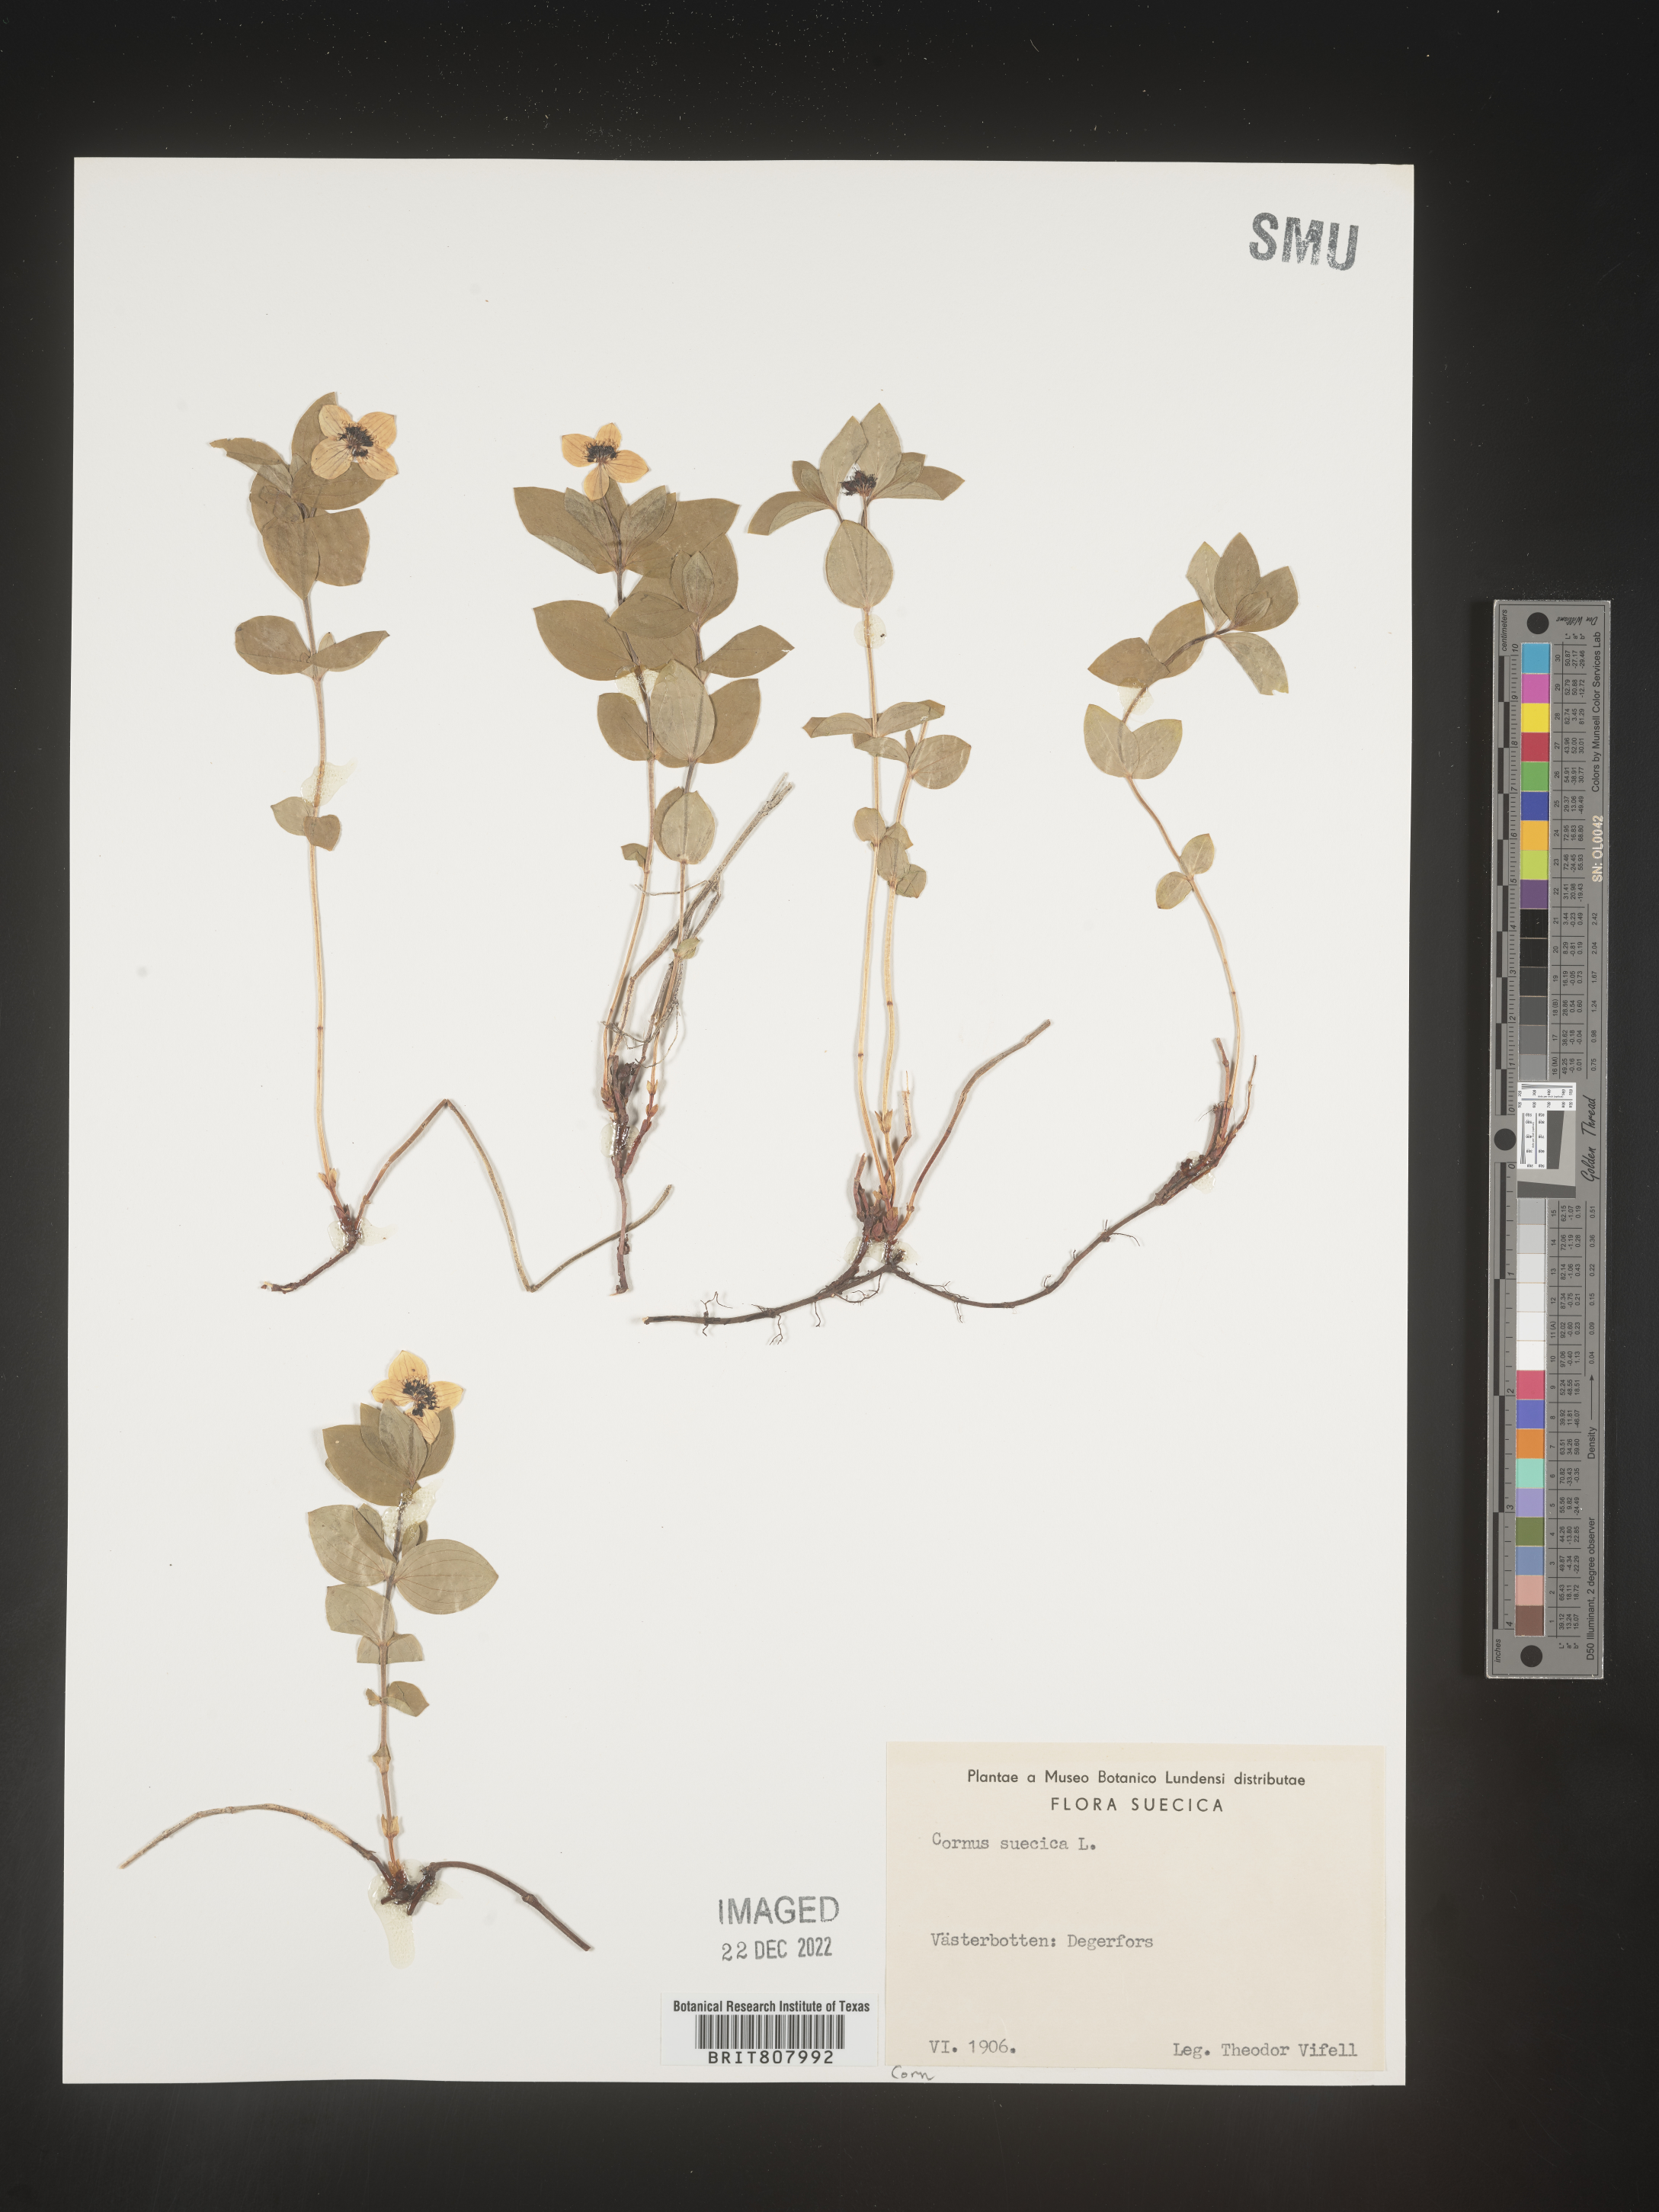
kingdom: Plantae
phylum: Tracheophyta
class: Magnoliopsida
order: Cornales
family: Cornaceae
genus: Cornus
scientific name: Cornus
